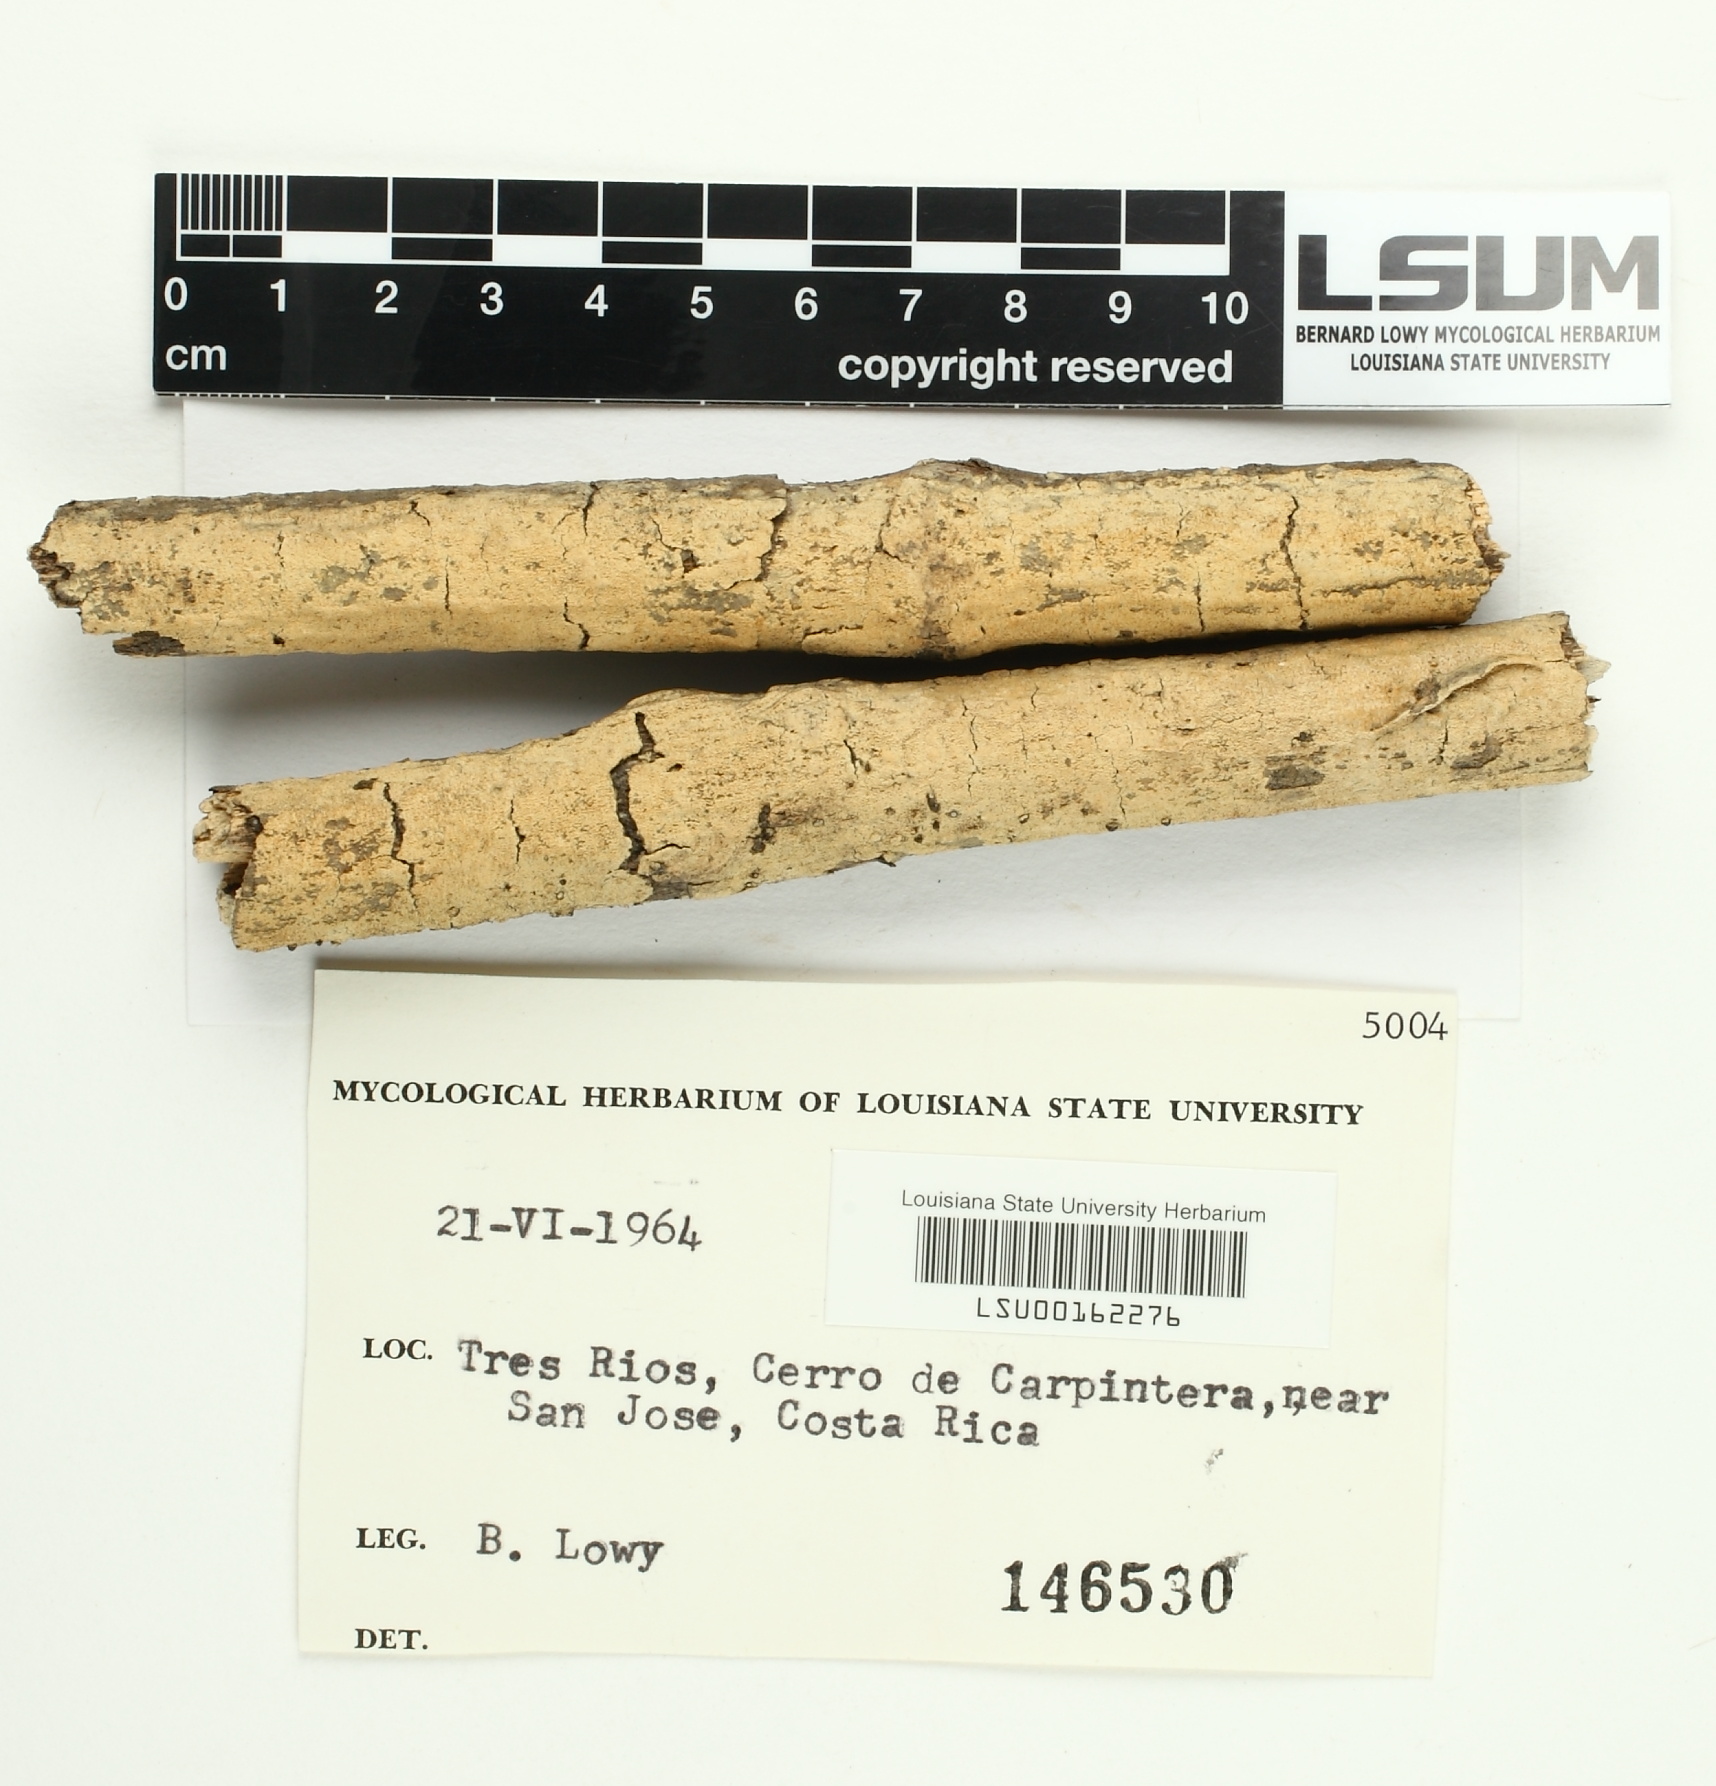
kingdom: Fungi
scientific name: Fungi
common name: Fungi
